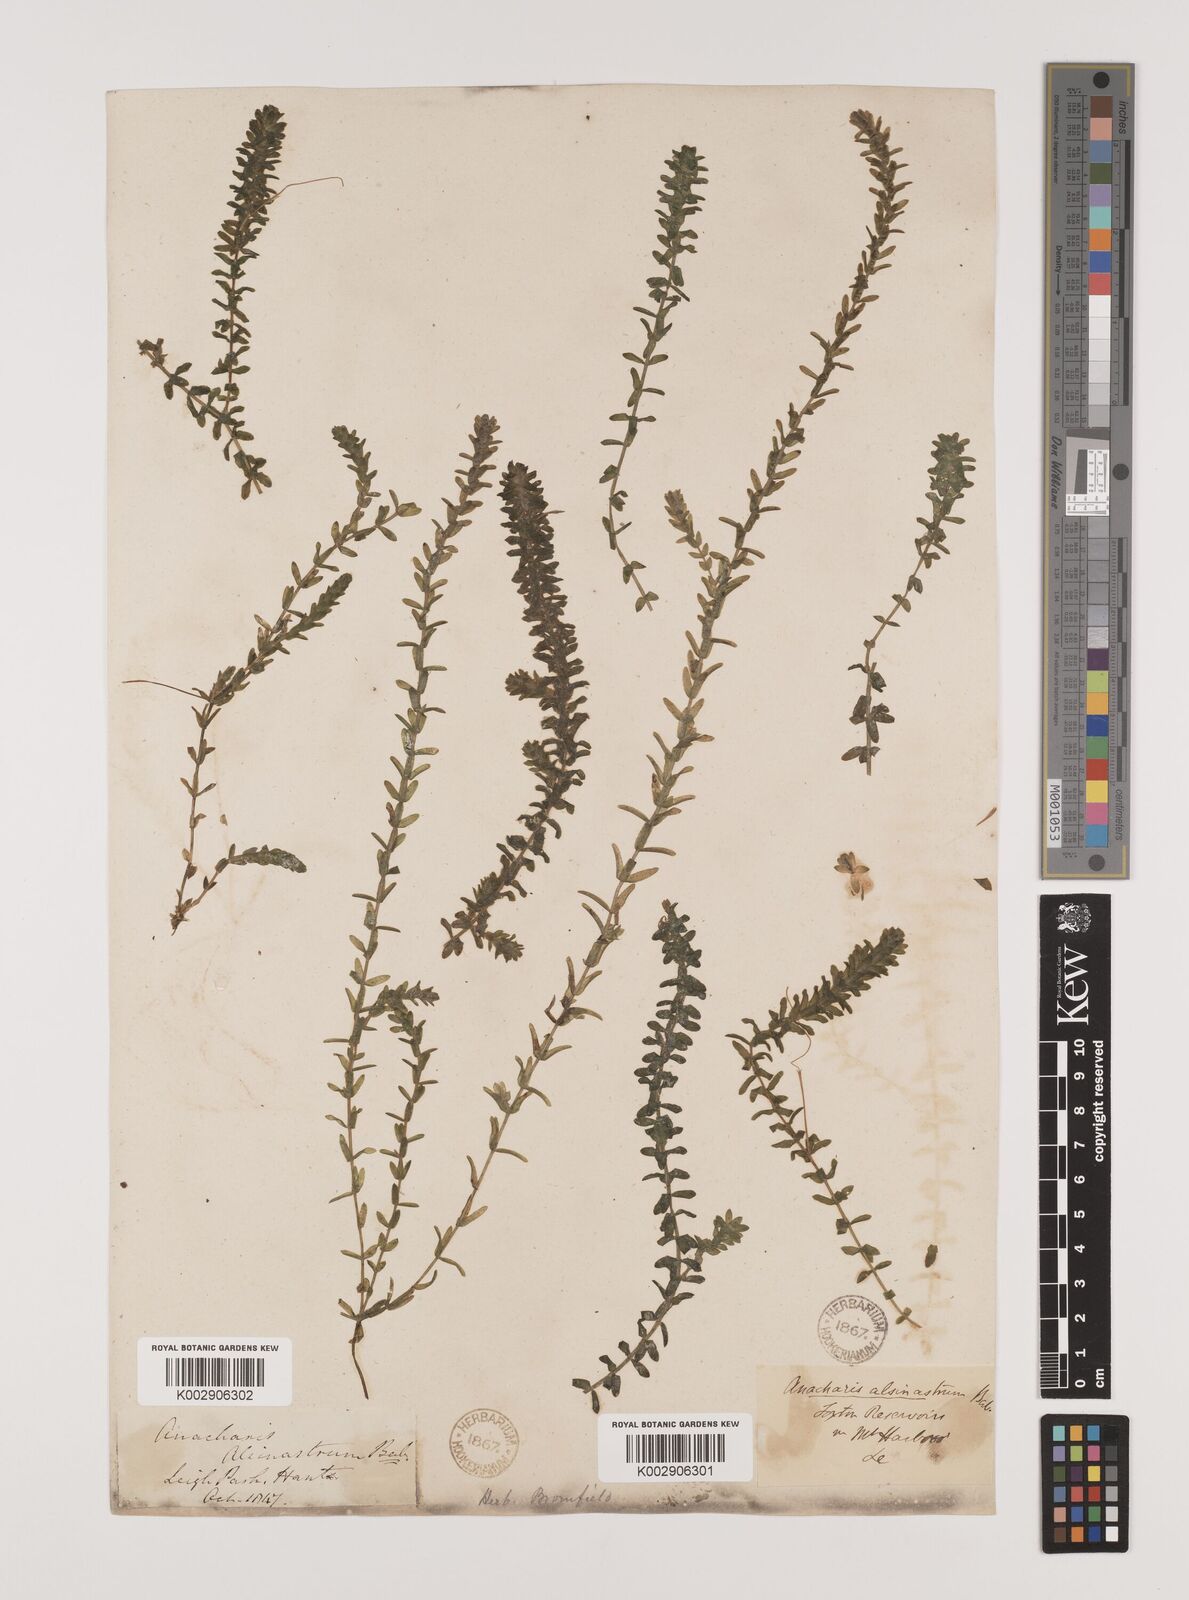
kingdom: Plantae
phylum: Tracheophyta
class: Liliopsida
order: Alismatales
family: Hydrocharitaceae
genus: Elodea
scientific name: Elodea canadensis
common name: Canadian waterweed
